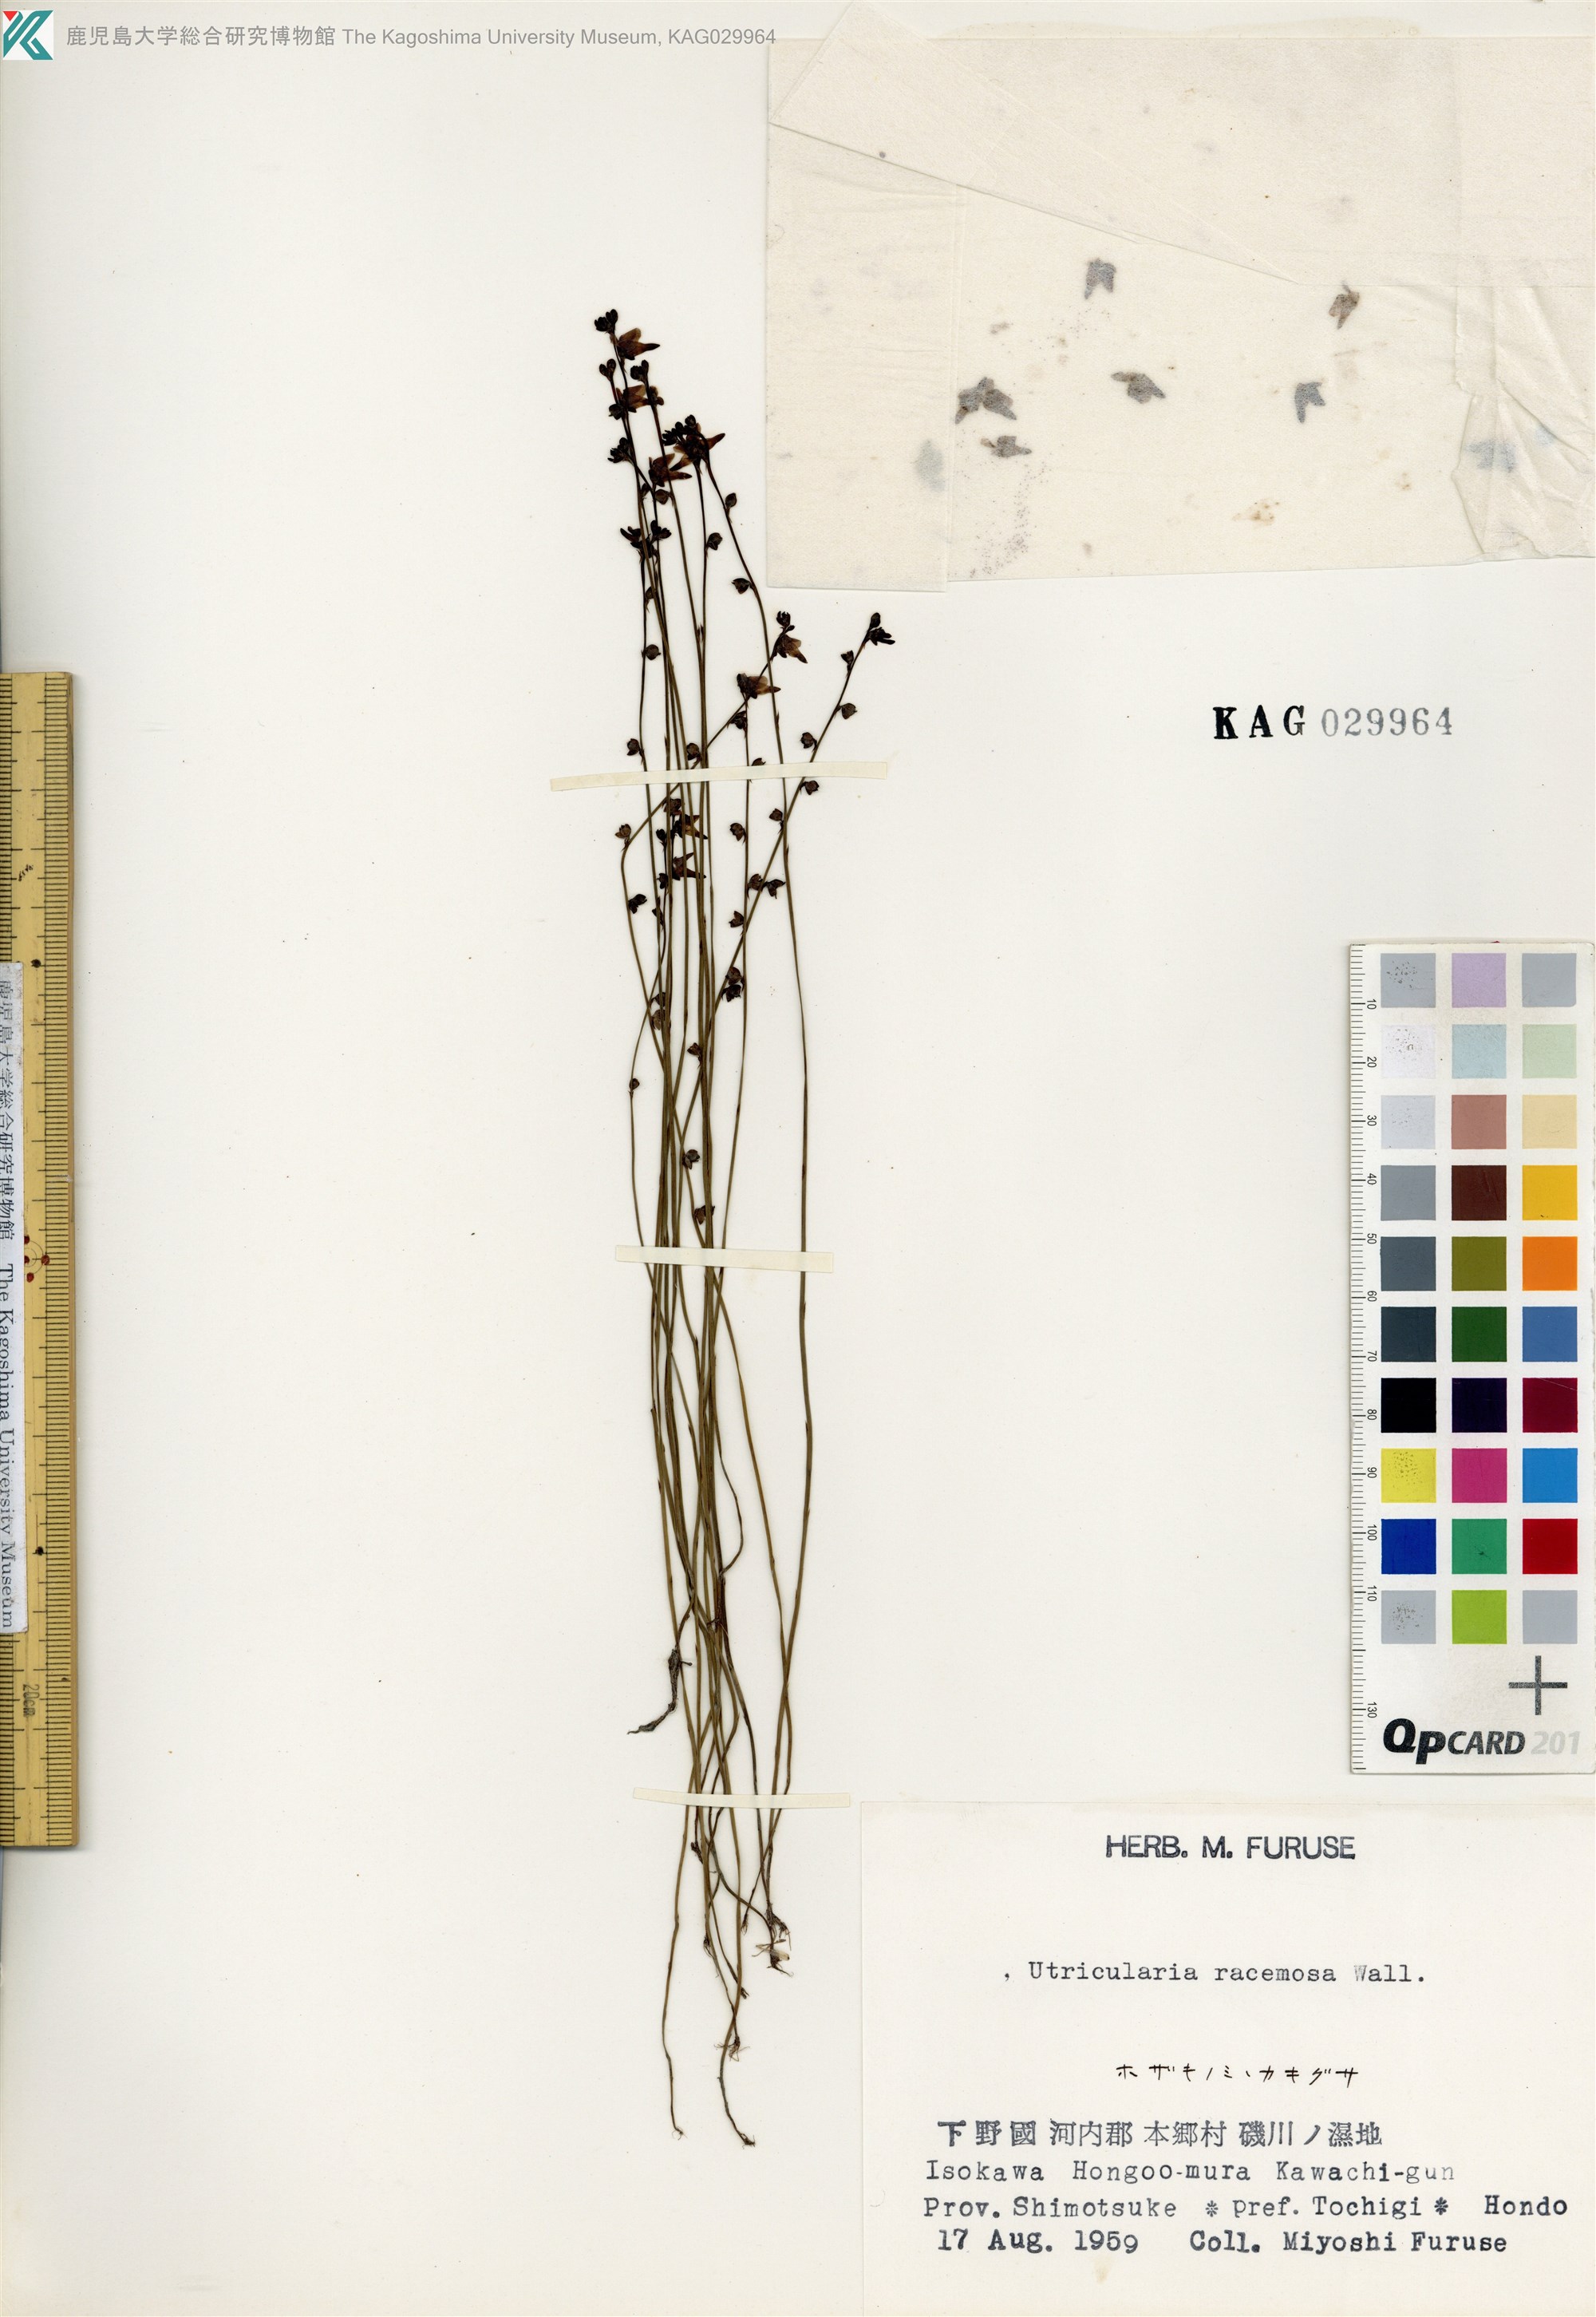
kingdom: Plantae
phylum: Tracheophyta
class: Magnoliopsida
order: Lamiales
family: Lentibulariaceae
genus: Utricularia
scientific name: Utricularia caerulea
